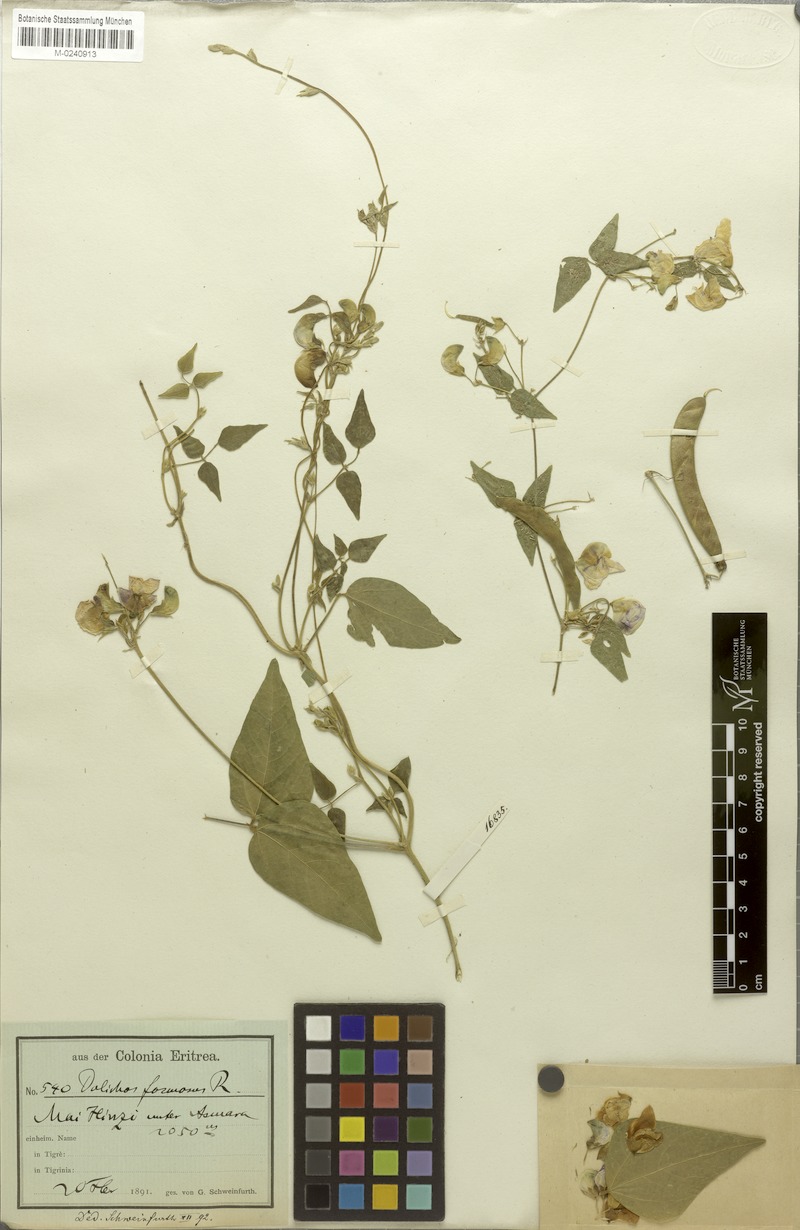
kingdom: Plantae
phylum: Tracheophyta
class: Magnoliopsida
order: Fabales
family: Fabaceae
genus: Dolichos
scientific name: Dolichos sericeus
